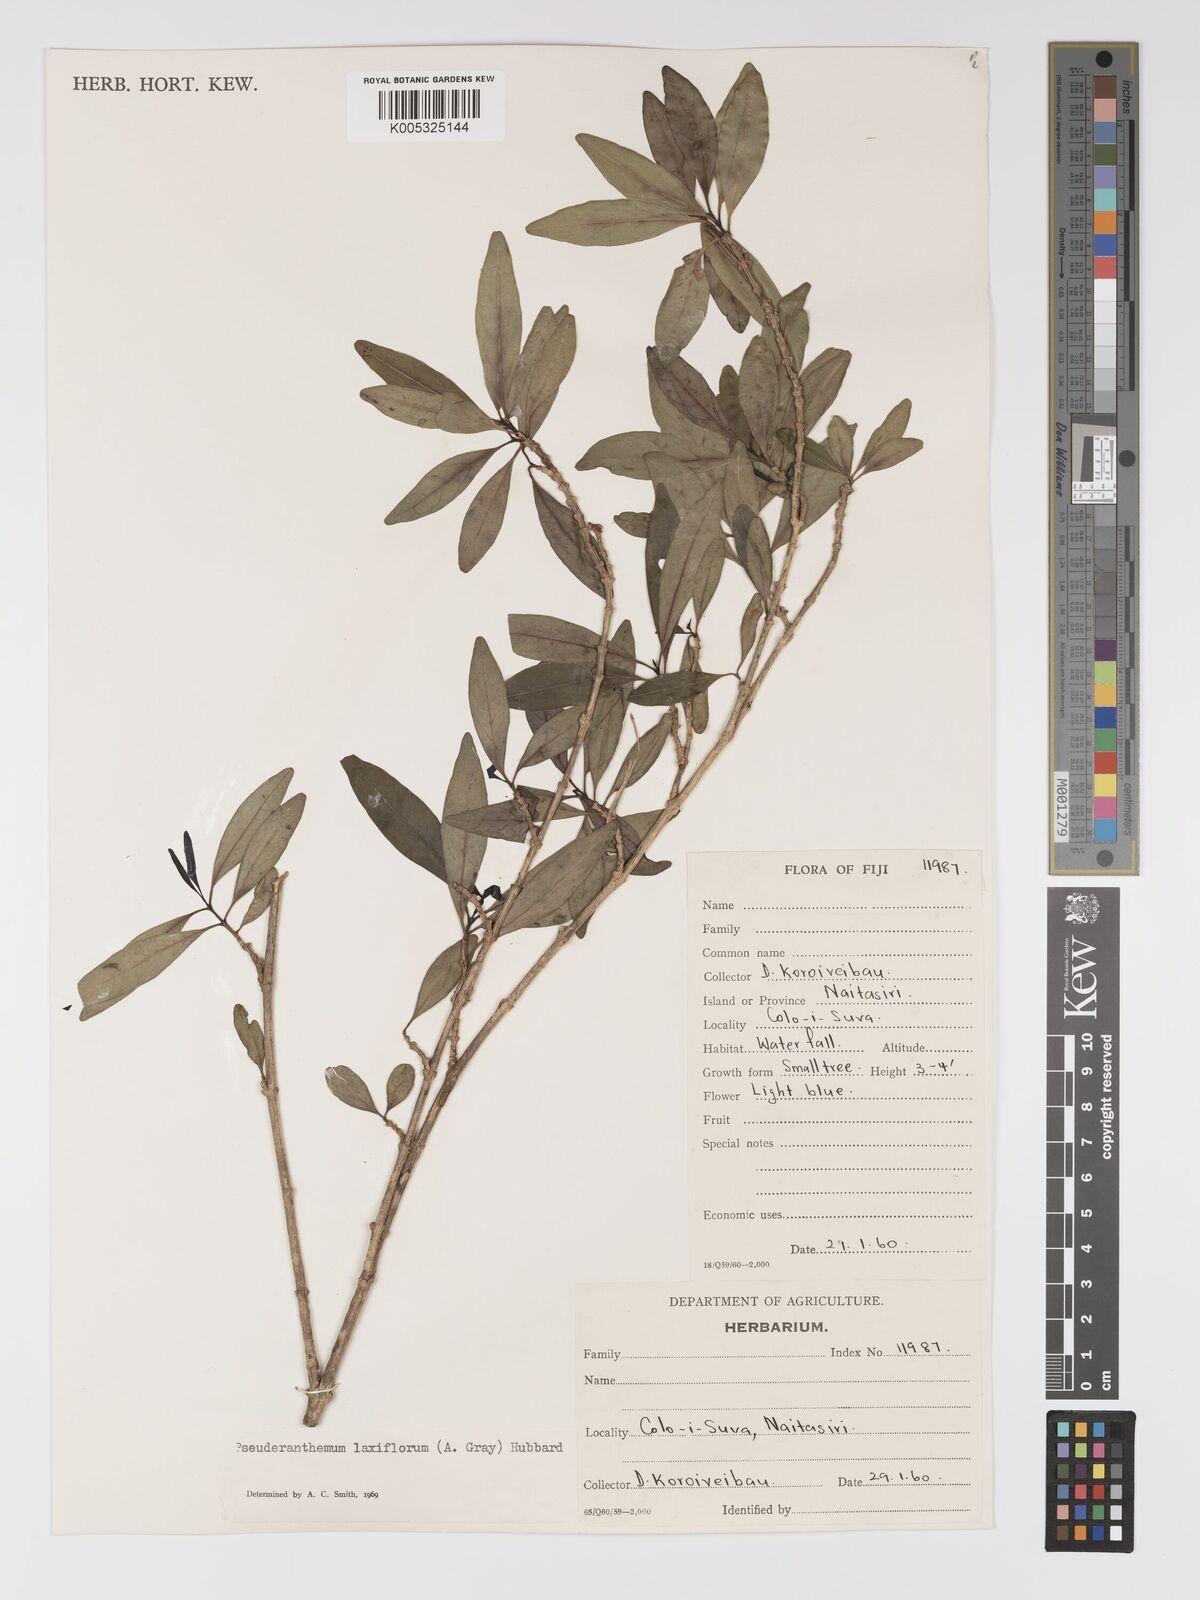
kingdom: Plantae
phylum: Tracheophyta
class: Magnoliopsida
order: Lamiales
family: Acanthaceae
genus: Pseuderanthemum
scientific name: Pseuderanthemum laxiflorum
